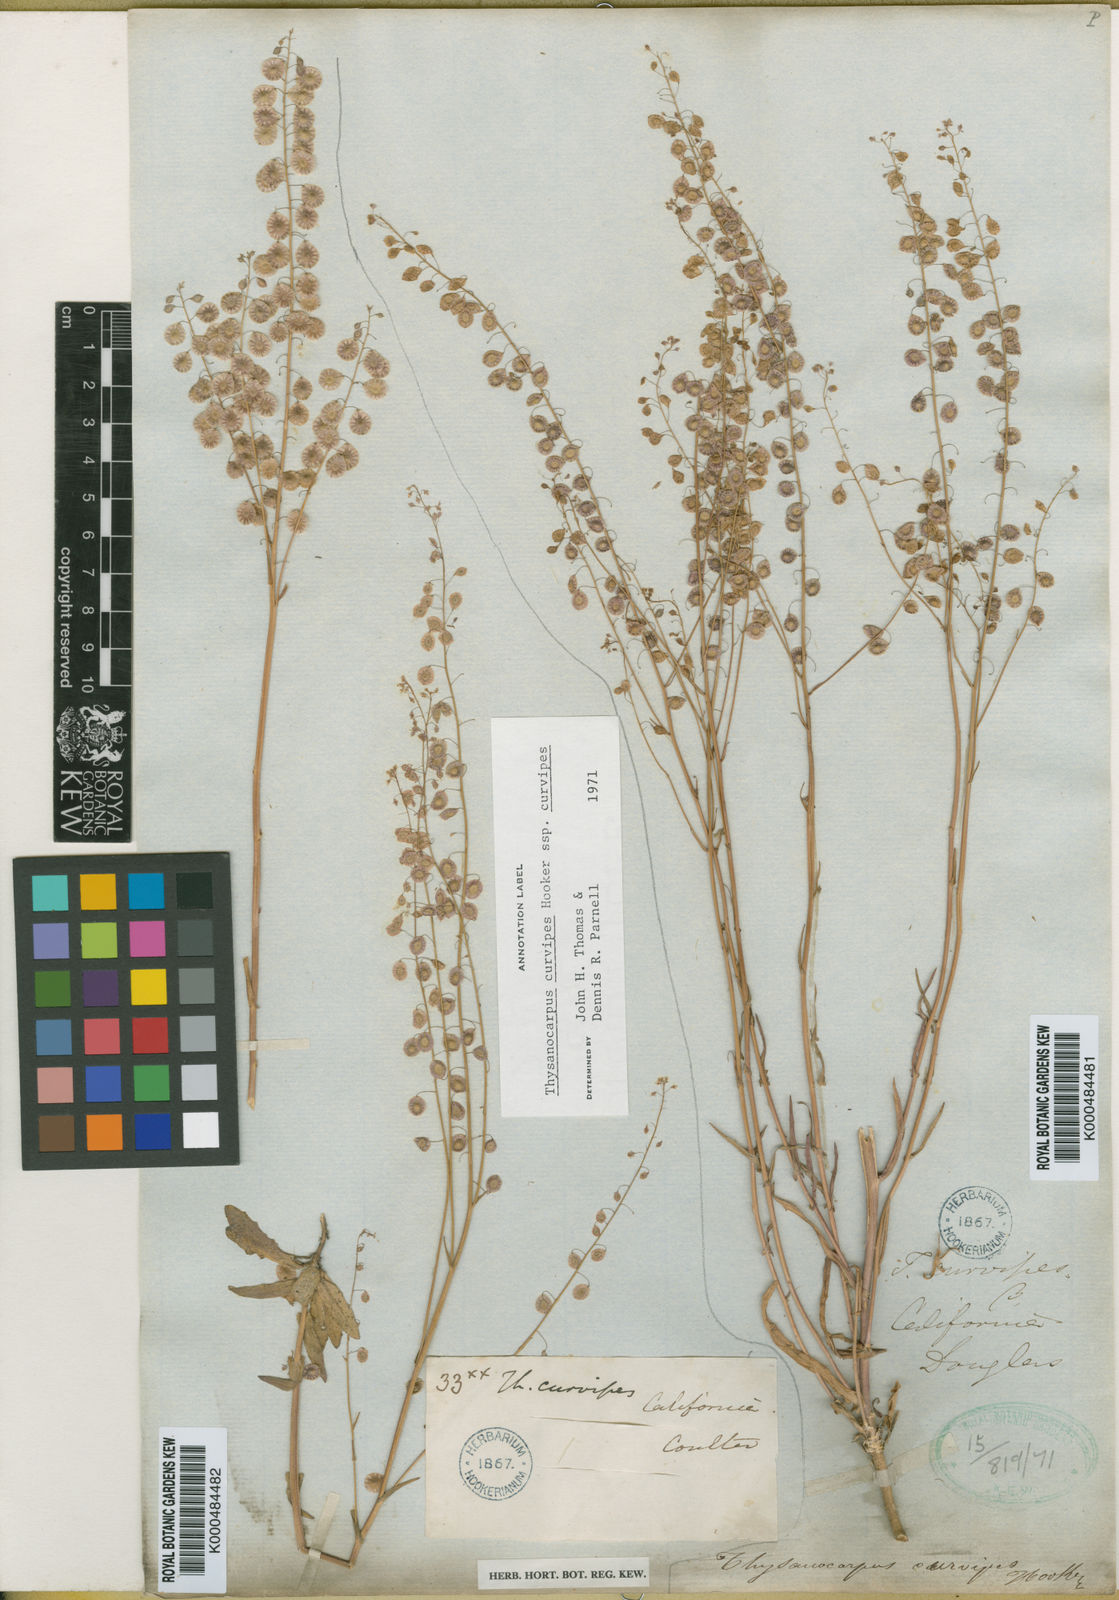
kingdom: Plantae
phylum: Tracheophyta
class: Magnoliopsida
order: Brassicales
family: Brassicaceae
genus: Thysanocarpus
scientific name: Thysanocarpus curvipes
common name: Sand fringepod
